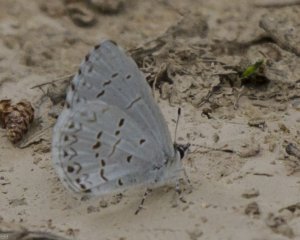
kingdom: Animalia
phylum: Arthropoda
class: Insecta
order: Lepidoptera
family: Lycaenidae
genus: Cyaniris
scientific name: Cyaniris neglecta
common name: Summer Azure
